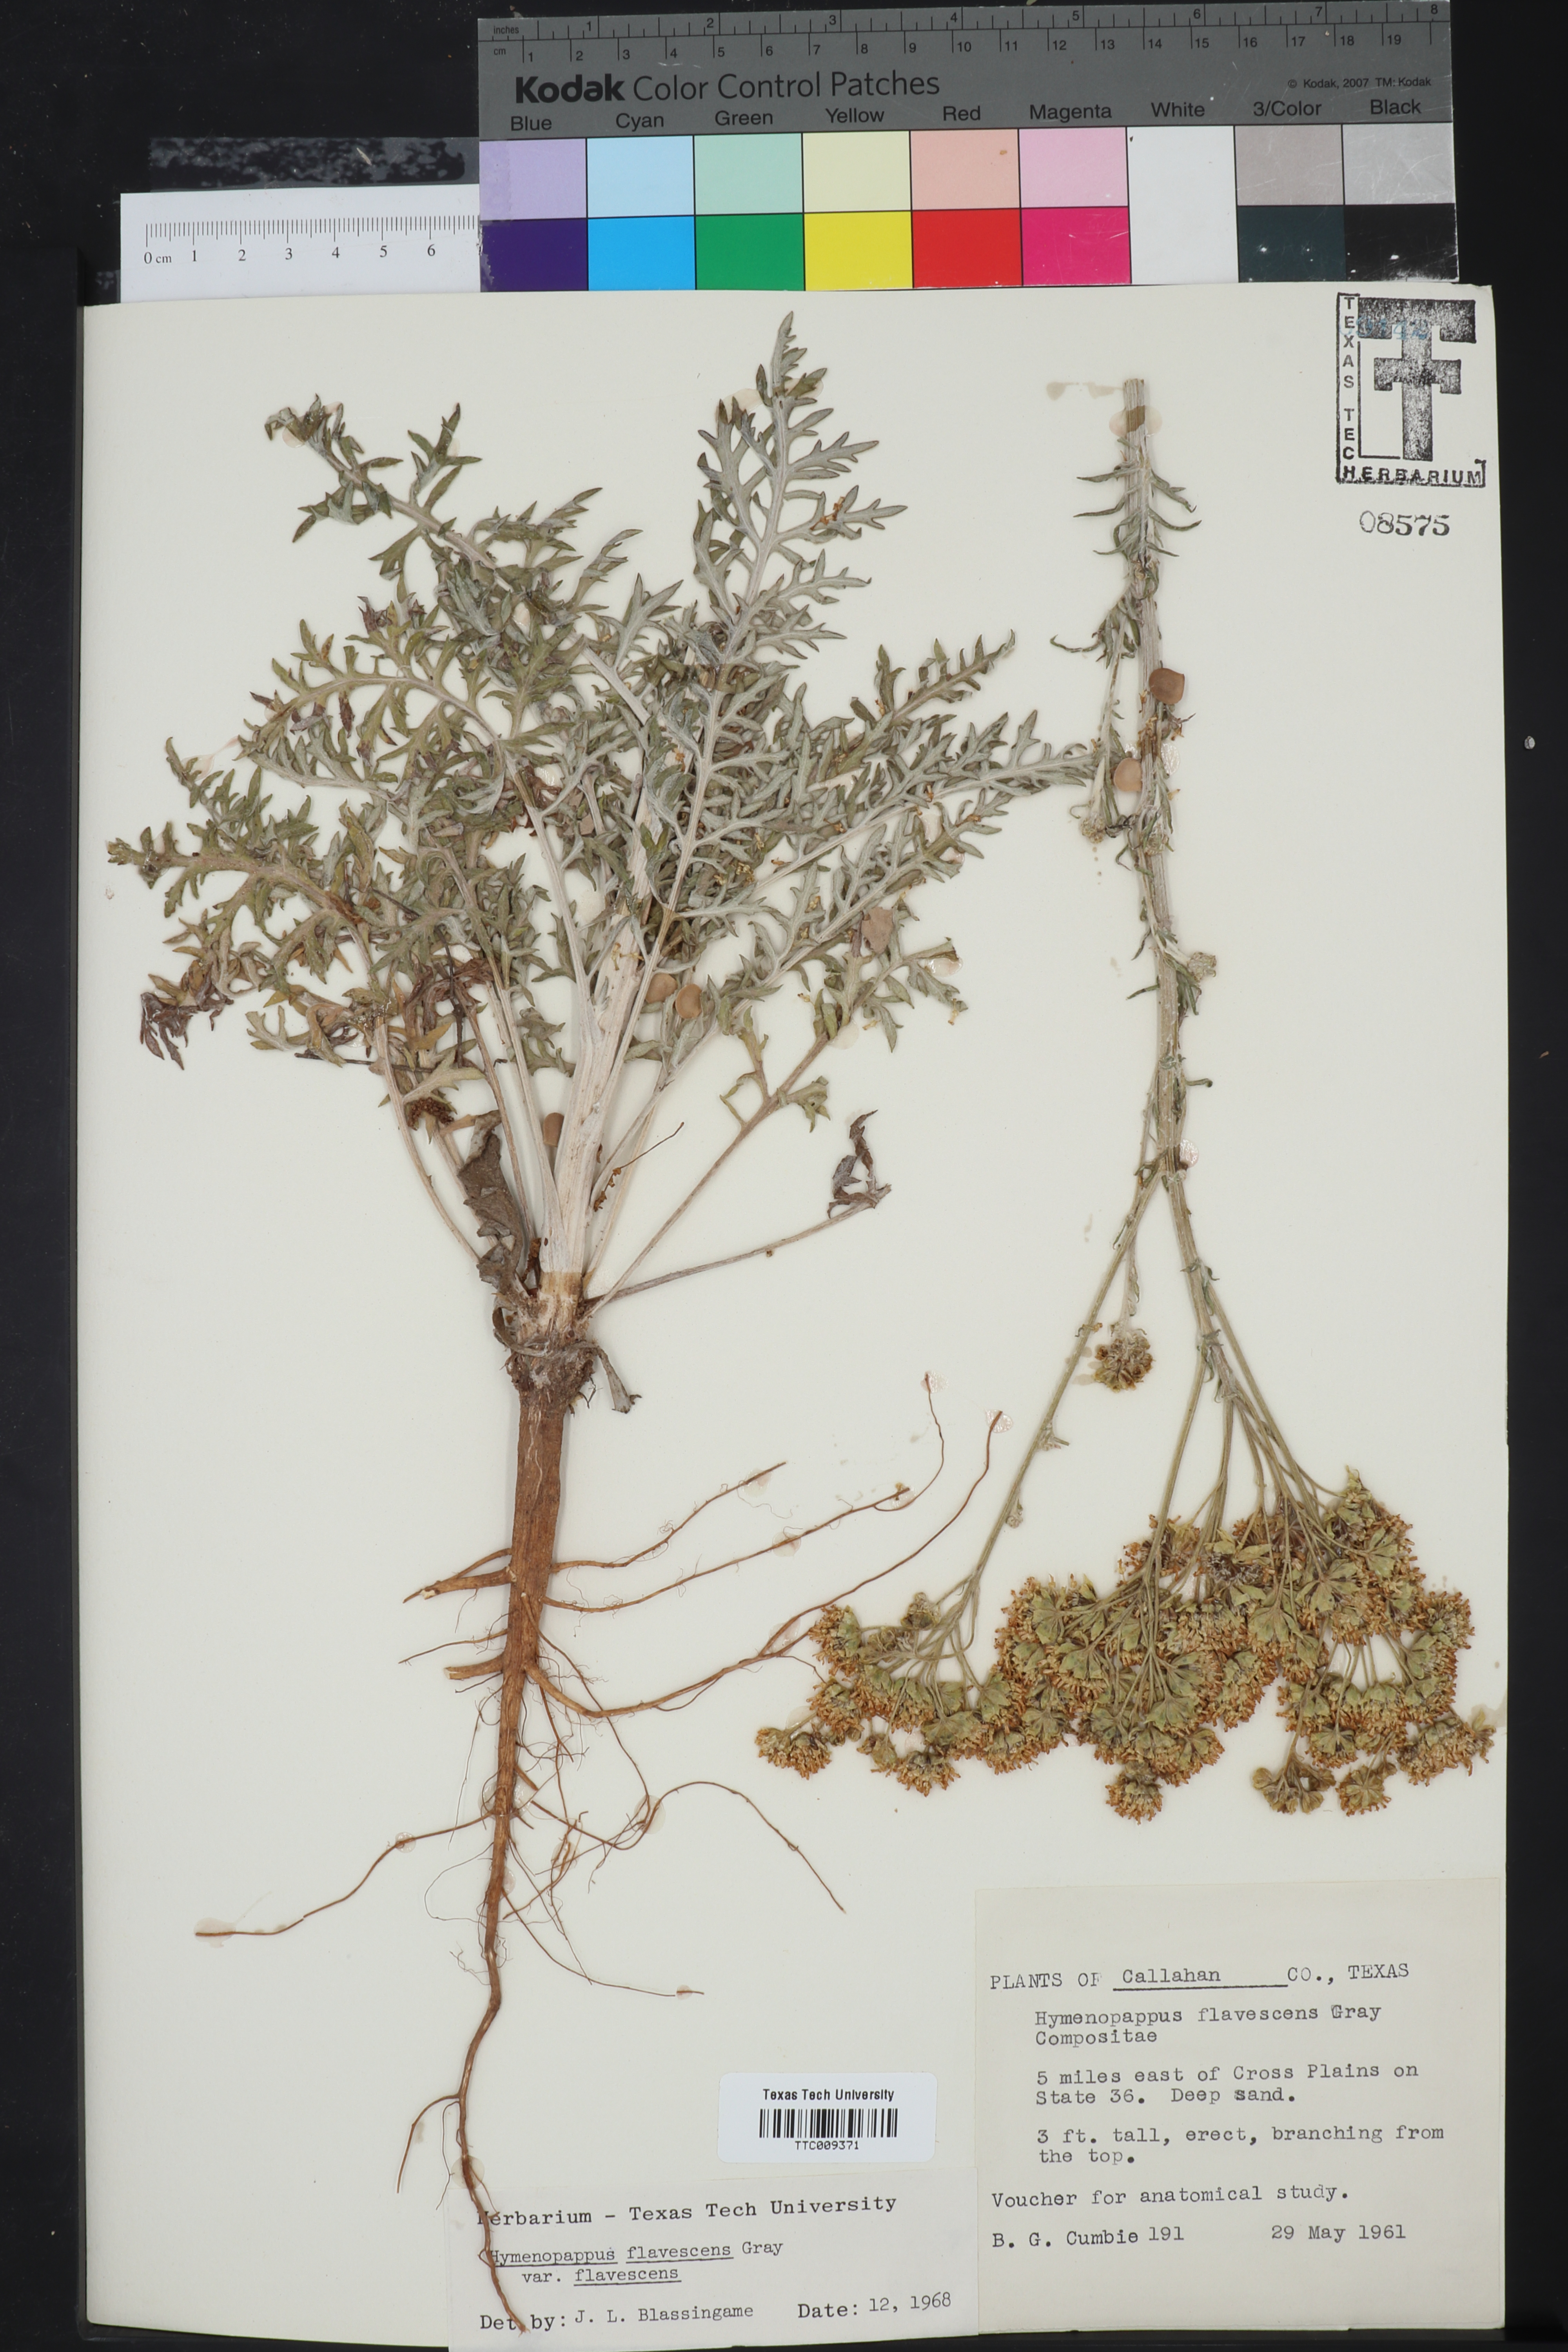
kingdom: Plantae
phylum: Tracheophyta
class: Magnoliopsida
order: Asterales
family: Asteraceae
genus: Hymenopappus
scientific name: Hymenopappus flavescens
